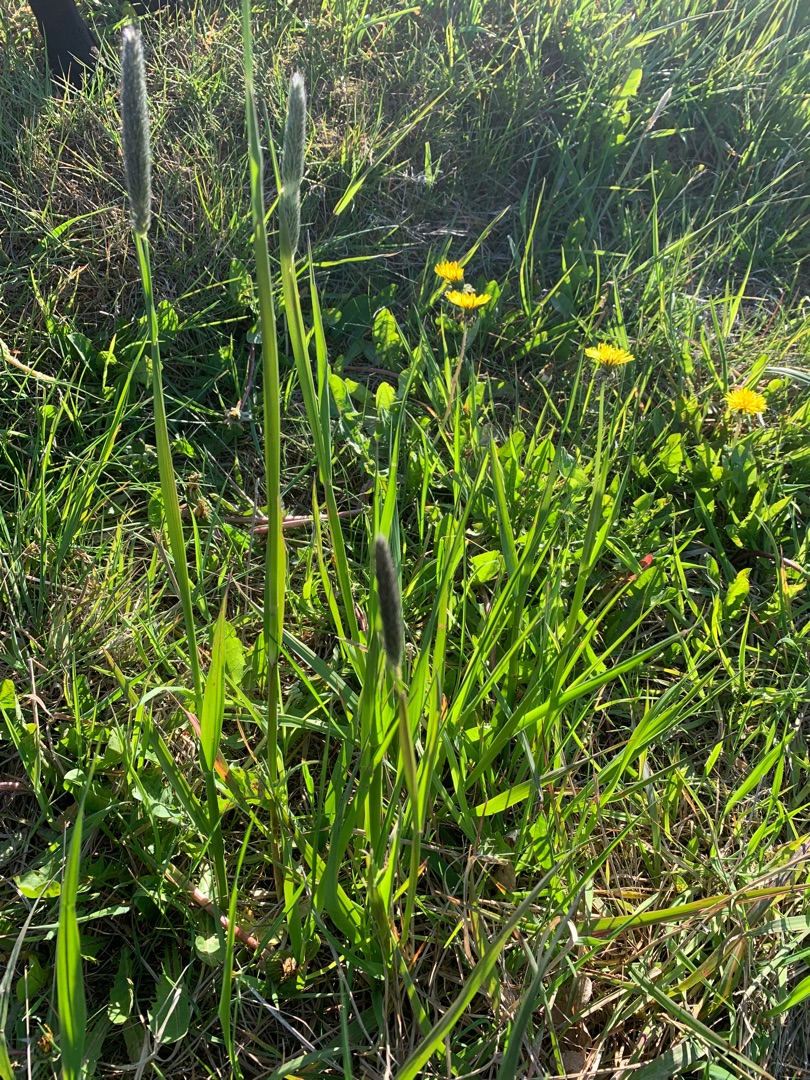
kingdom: Plantae
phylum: Tracheophyta
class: Liliopsida
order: Poales
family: Poaceae
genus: Alopecurus
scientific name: Alopecurus pratensis
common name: Eng-rævehale
